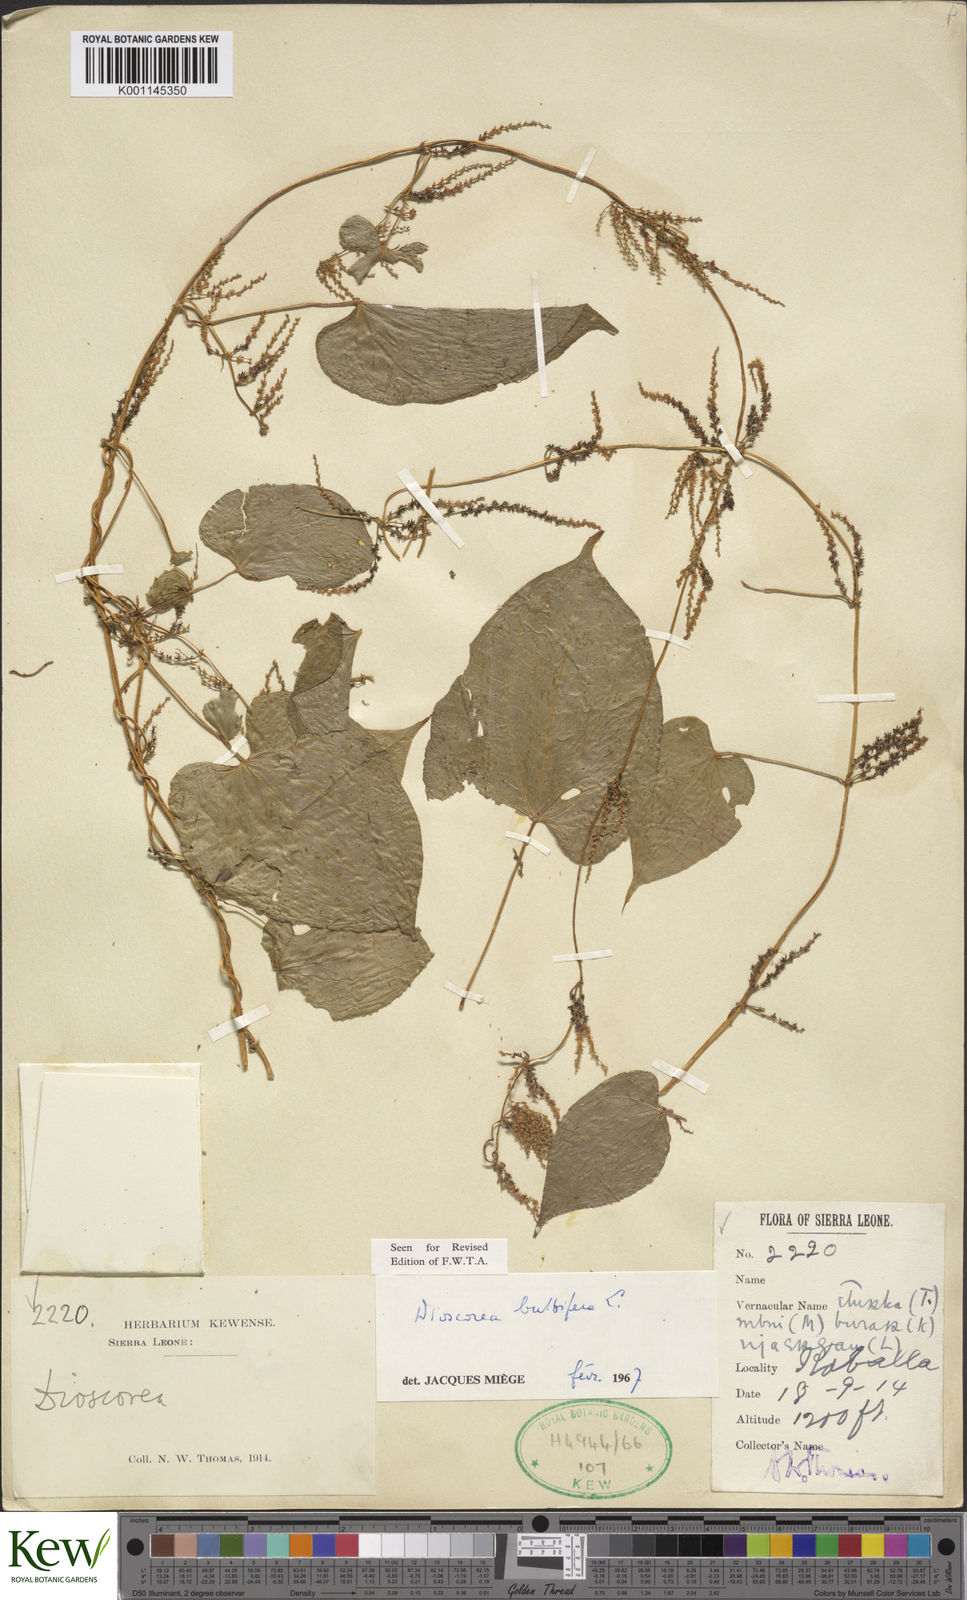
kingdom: Plantae
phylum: Tracheophyta
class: Liliopsida
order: Dioscoreales
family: Dioscoreaceae
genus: Dioscorea
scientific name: Dioscorea bulbifera
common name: Air yam
